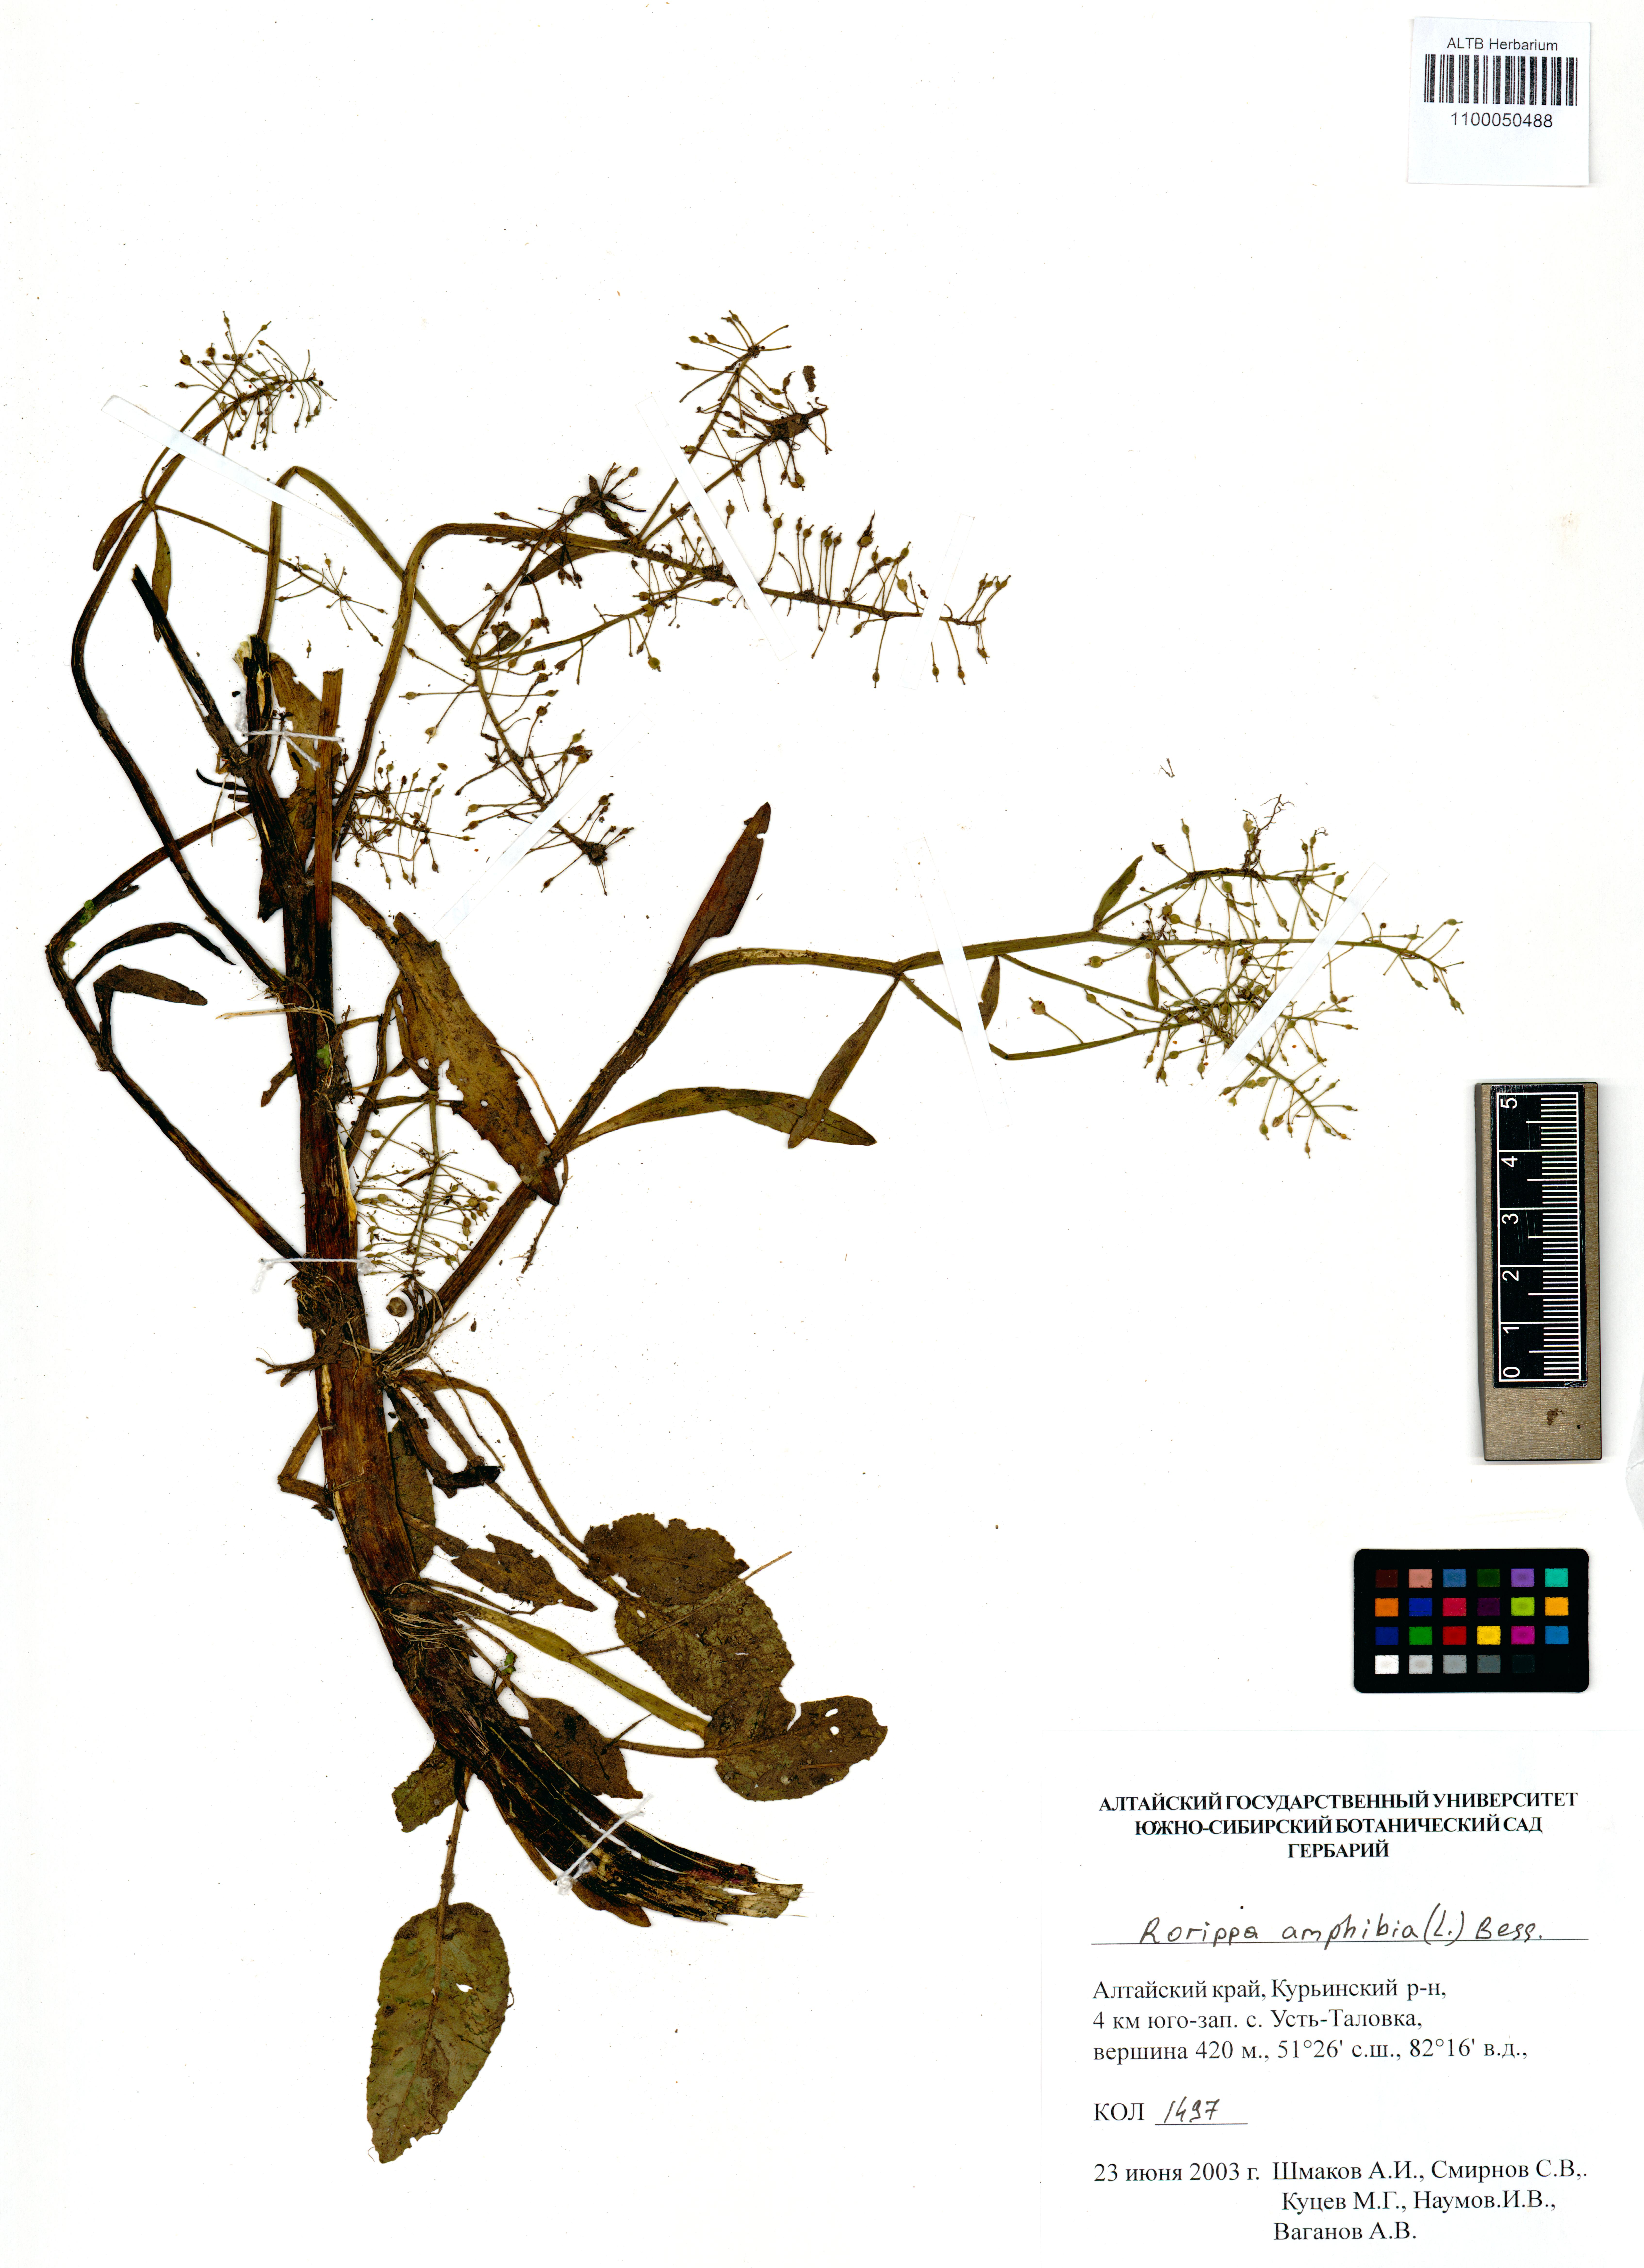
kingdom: Plantae
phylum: Tracheophyta
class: Magnoliopsida
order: Brassicales
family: Brassicaceae
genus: Rorippa
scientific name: Rorippa amphibia
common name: Great yellow-cress
